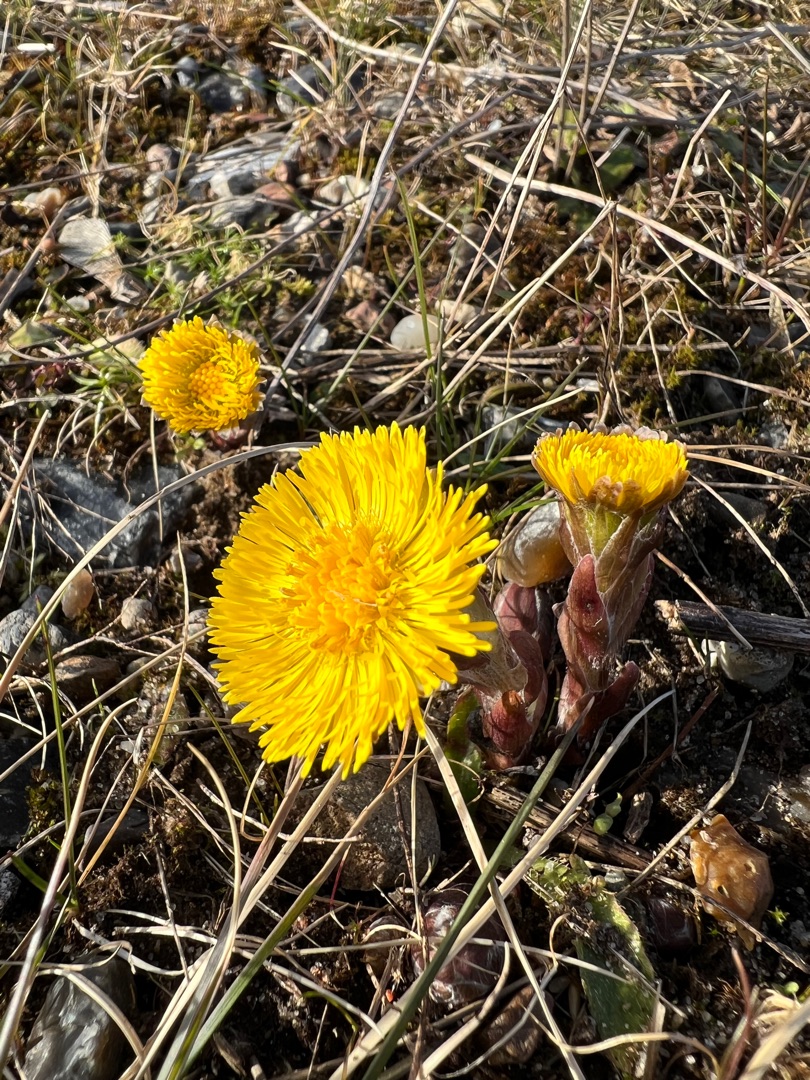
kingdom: Plantae
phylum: Tracheophyta
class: Magnoliopsida
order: Asterales
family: Asteraceae
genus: Tussilago
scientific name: Tussilago farfara
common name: Følfod
